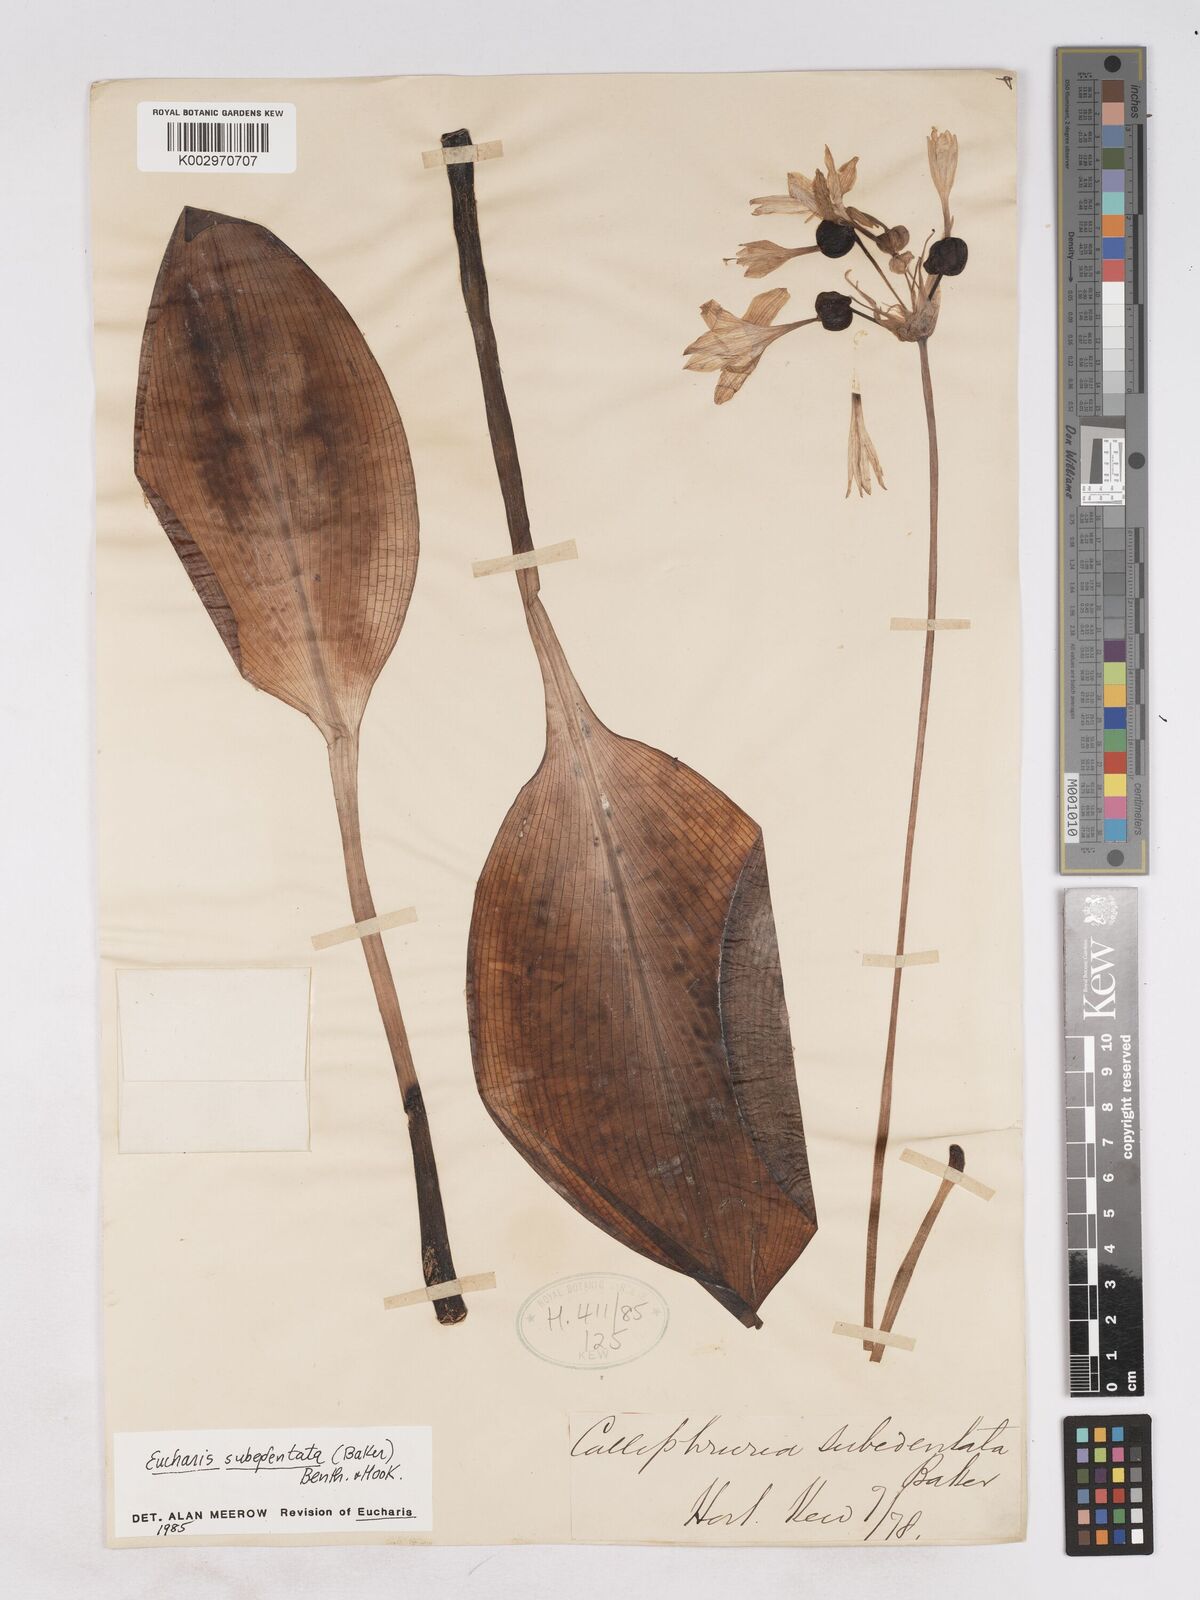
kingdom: Plantae
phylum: Tracheophyta
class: Liliopsida
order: Asparagales
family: Amaryllidaceae
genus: Urceolina
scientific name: Urceolina subedentata
